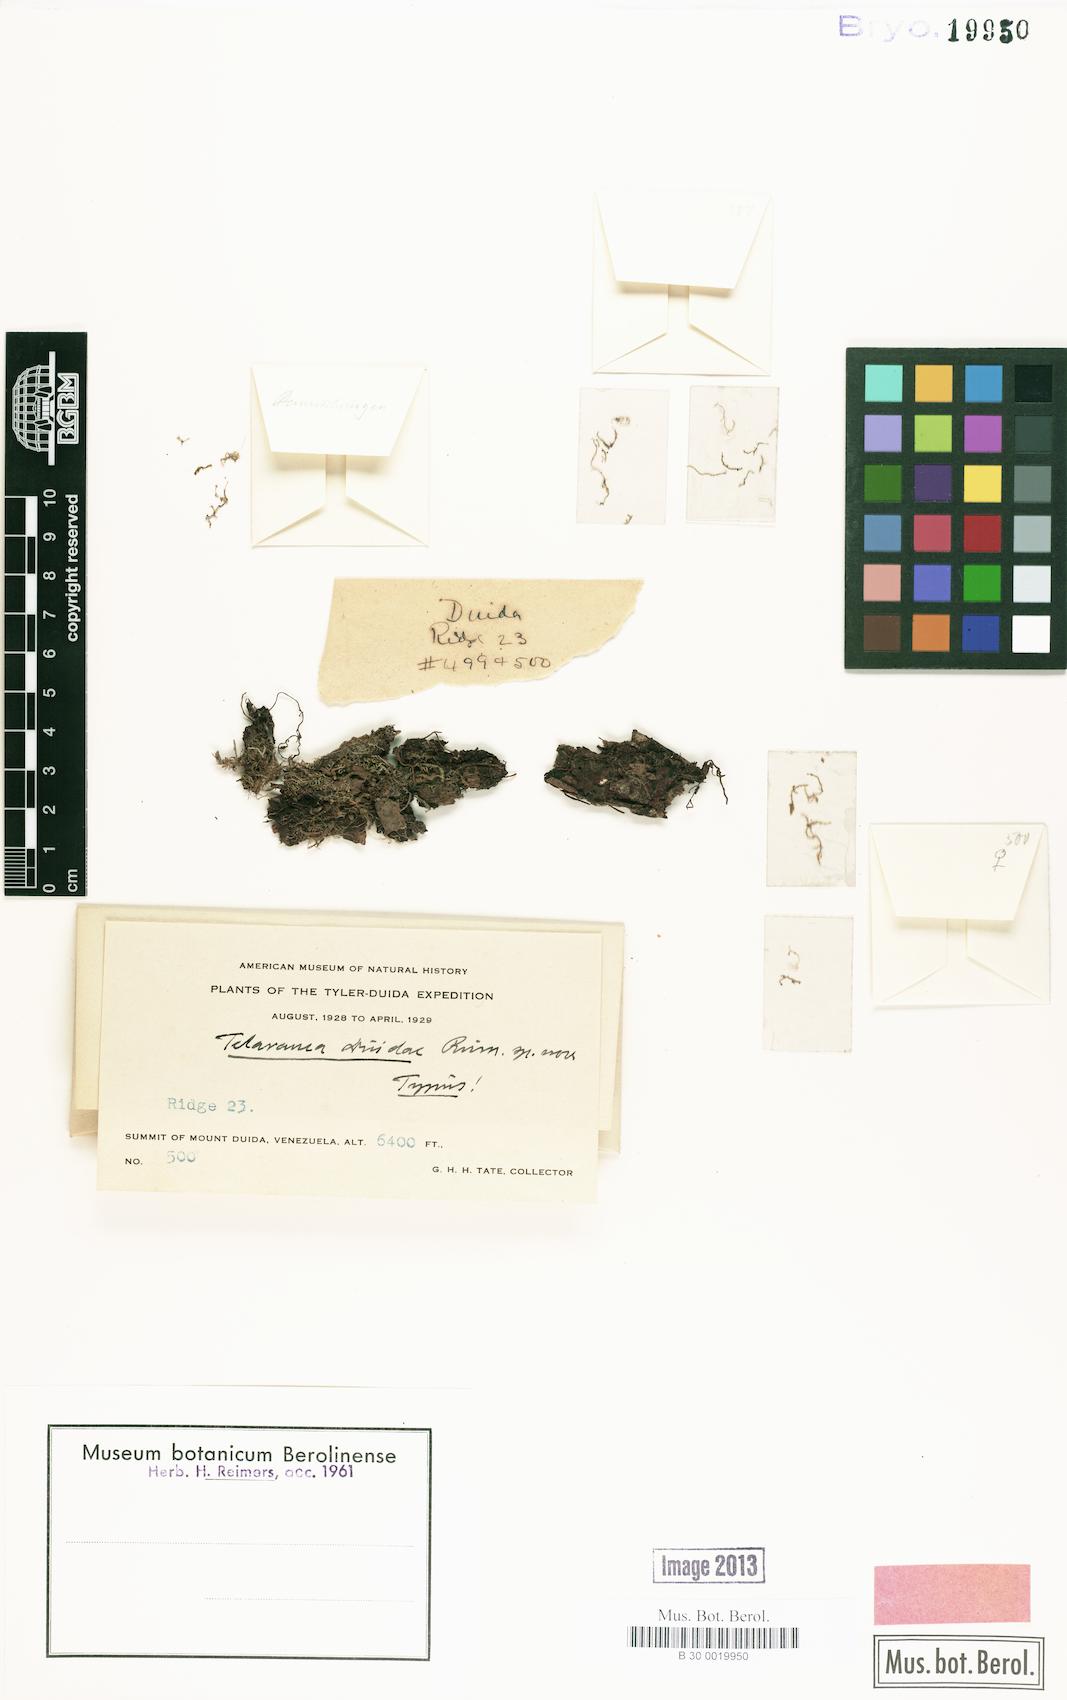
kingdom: Plantae
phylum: Marchantiophyta
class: Jungermanniopsida
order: Jungermanniales
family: Lepidoziaceae
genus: Telaranea
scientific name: Telaranea
